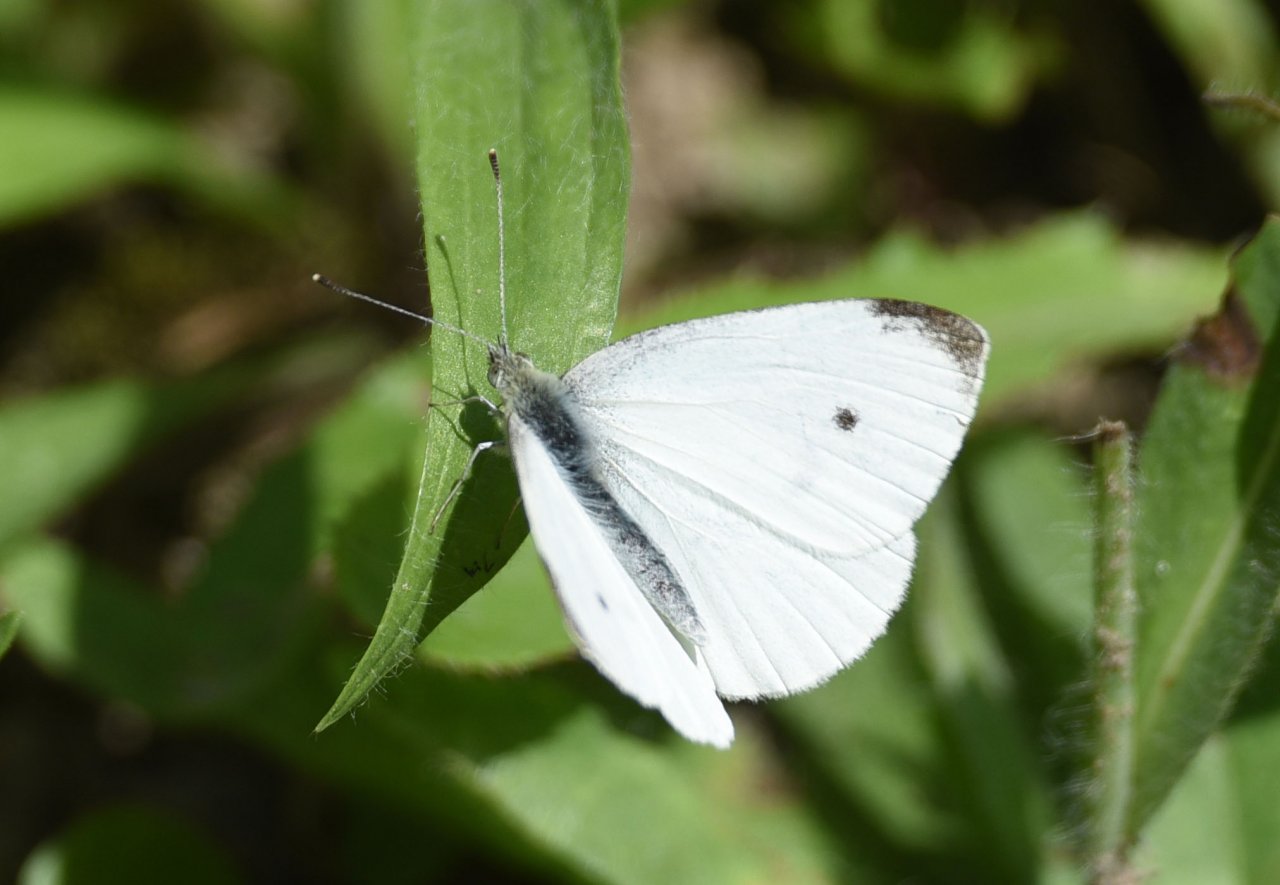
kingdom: Animalia
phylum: Arthropoda
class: Insecta
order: Lepidoptera
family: Pieridae
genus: Pieris
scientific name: Pieris rapae
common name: Cabbage White
